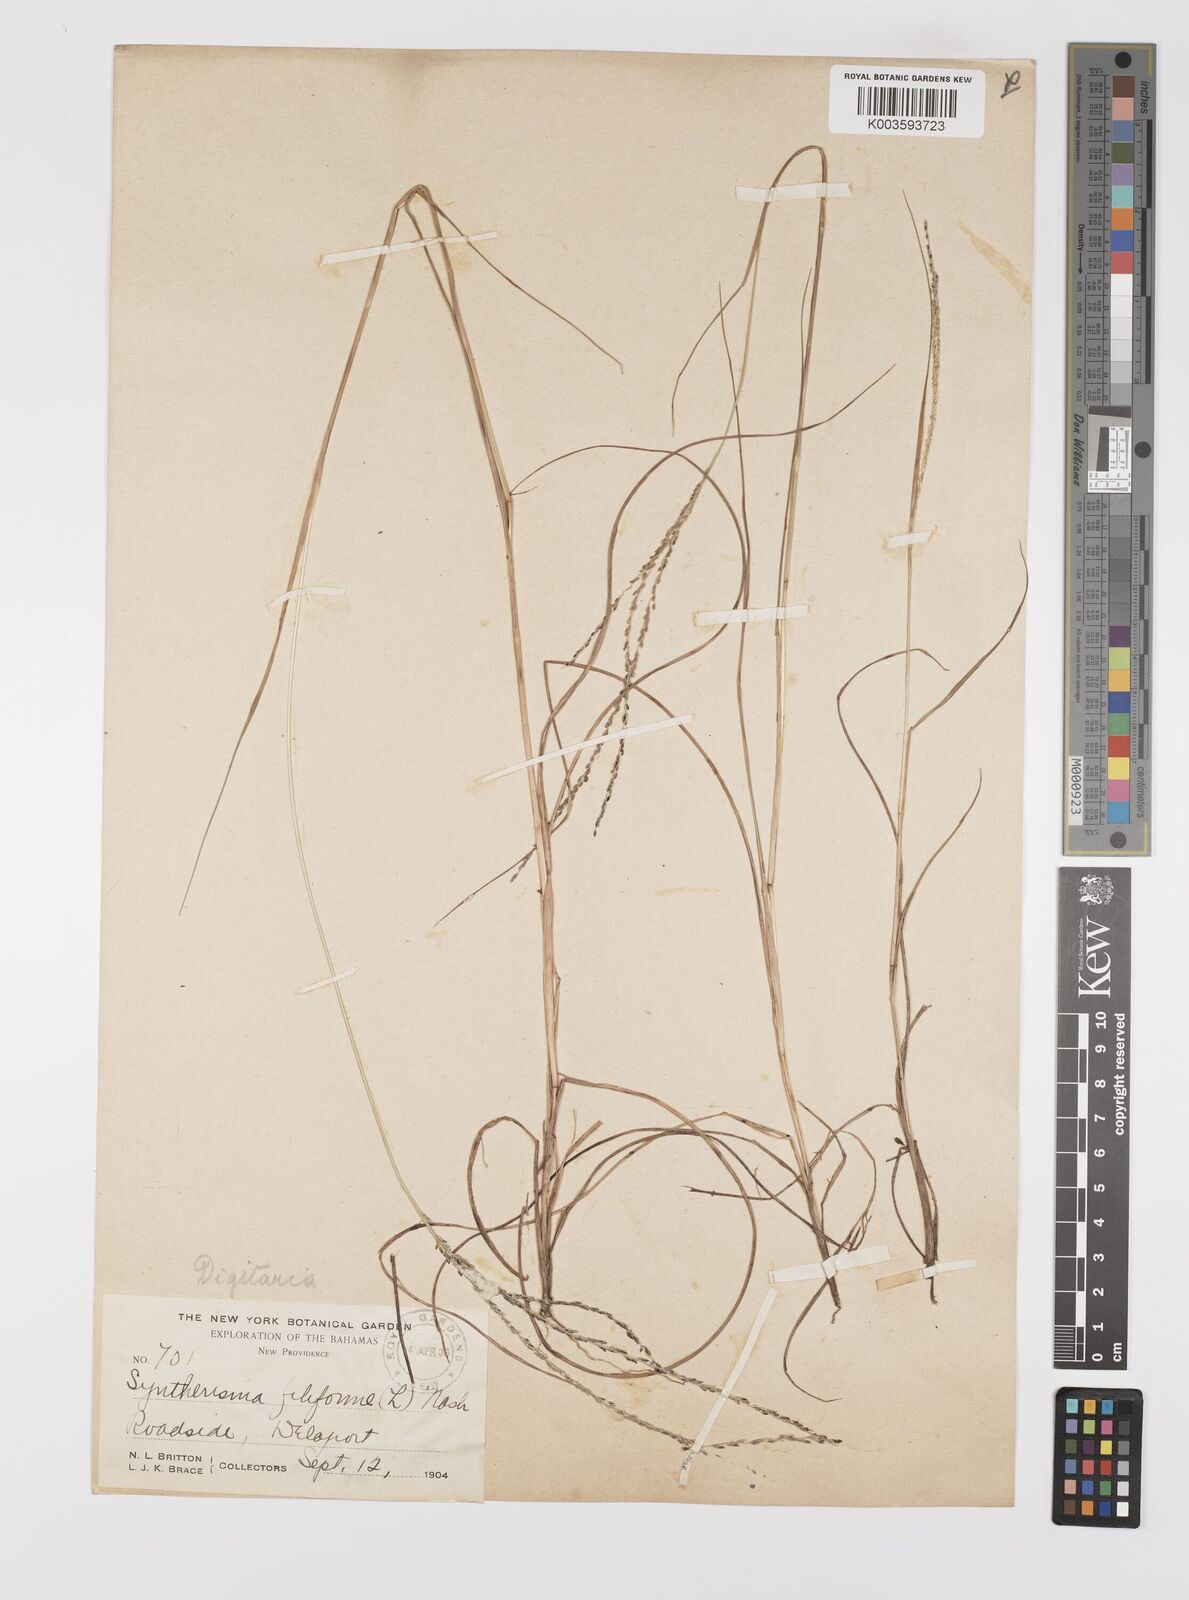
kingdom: Plantae
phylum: Tracheophyta
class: Liliopsida
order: Poales
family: Poaceae
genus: Digitaria
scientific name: Digitaria villosa
